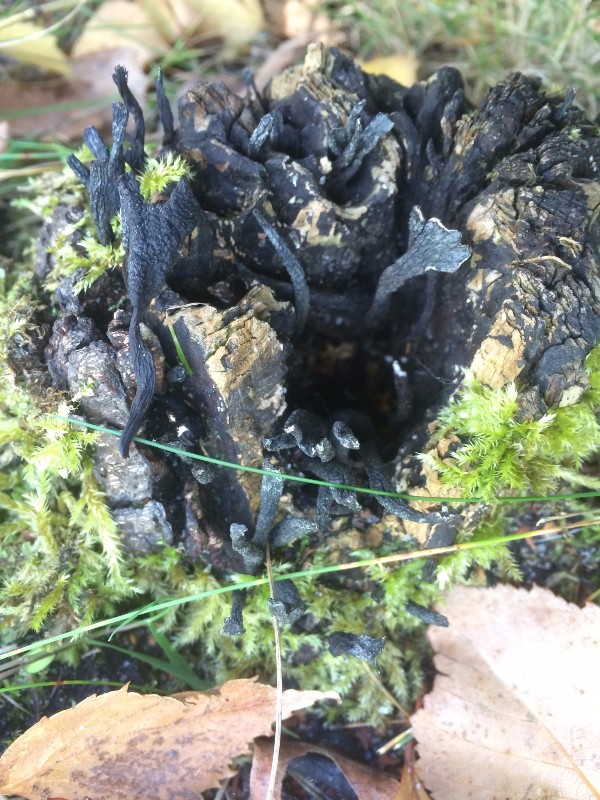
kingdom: Fungi
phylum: Ascomycota
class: Sordariomycetes
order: Xylariales
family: Xylariaceae
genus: Xylaria
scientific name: Xylaria hypoxylon
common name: grenet stødsvamp
